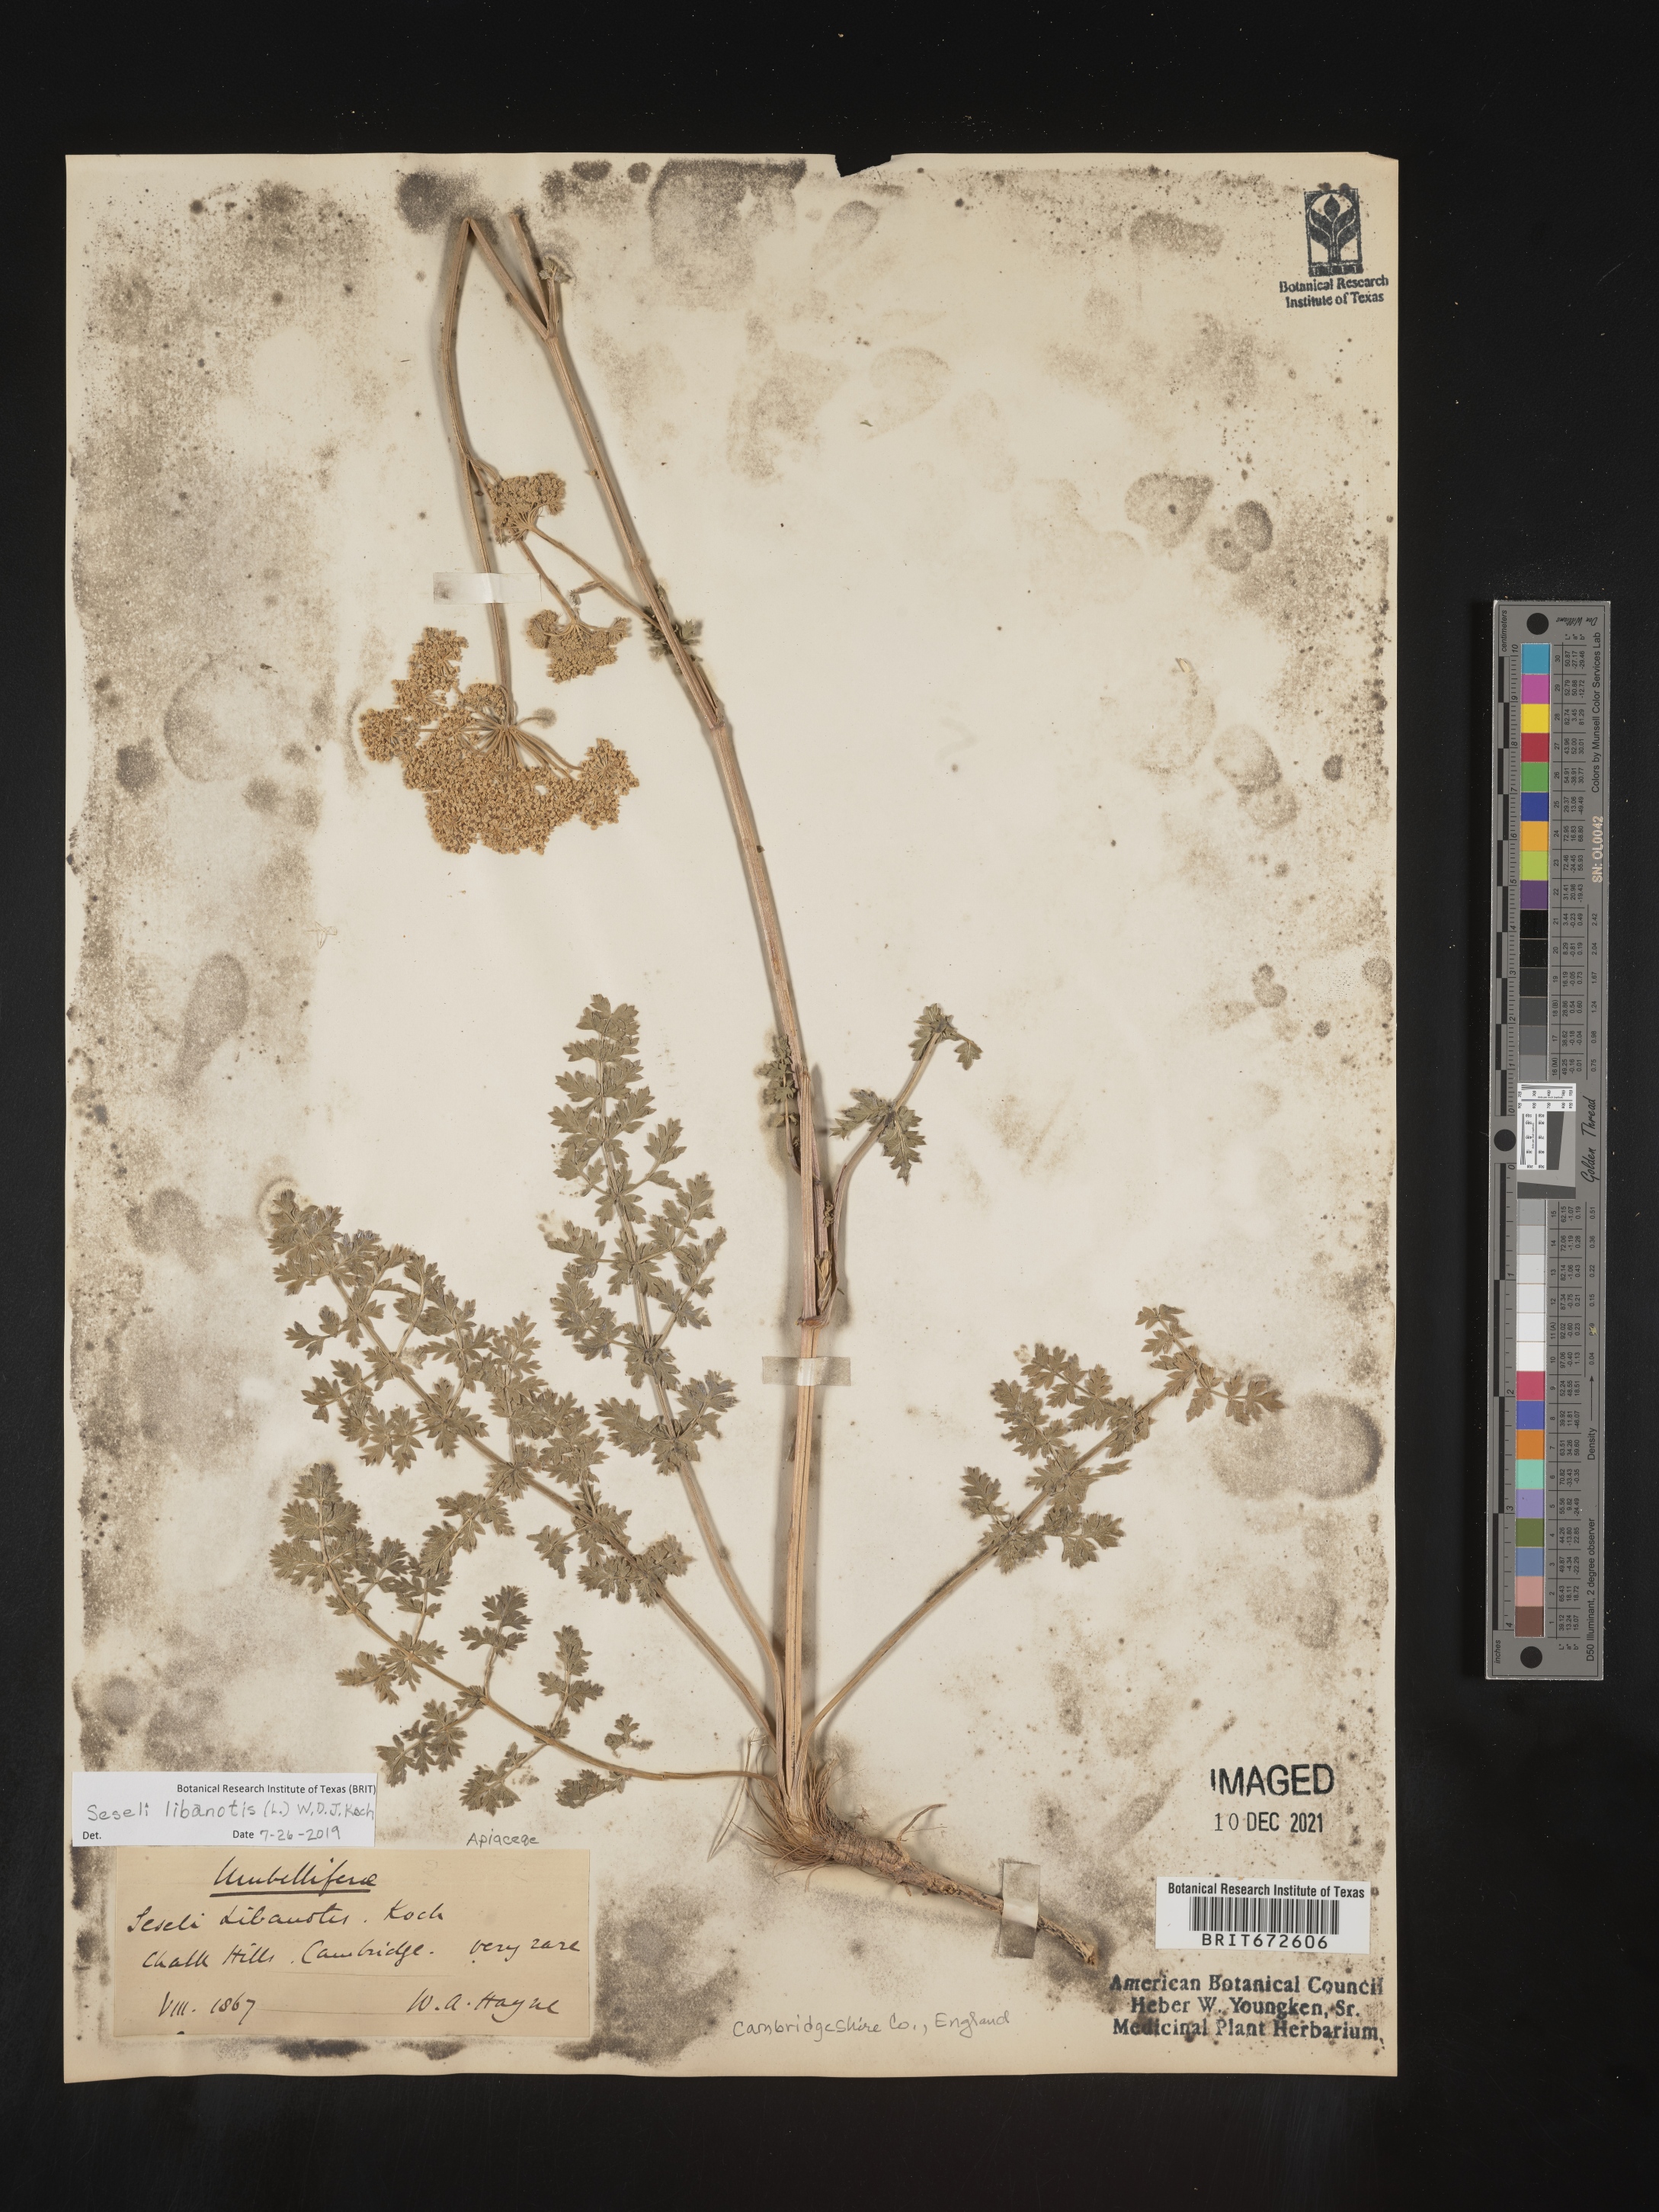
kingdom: Plantae
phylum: Tracheophyta
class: Magnoliopsida
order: Apiales
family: Apiaceae
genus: Seseli
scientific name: Seseli
